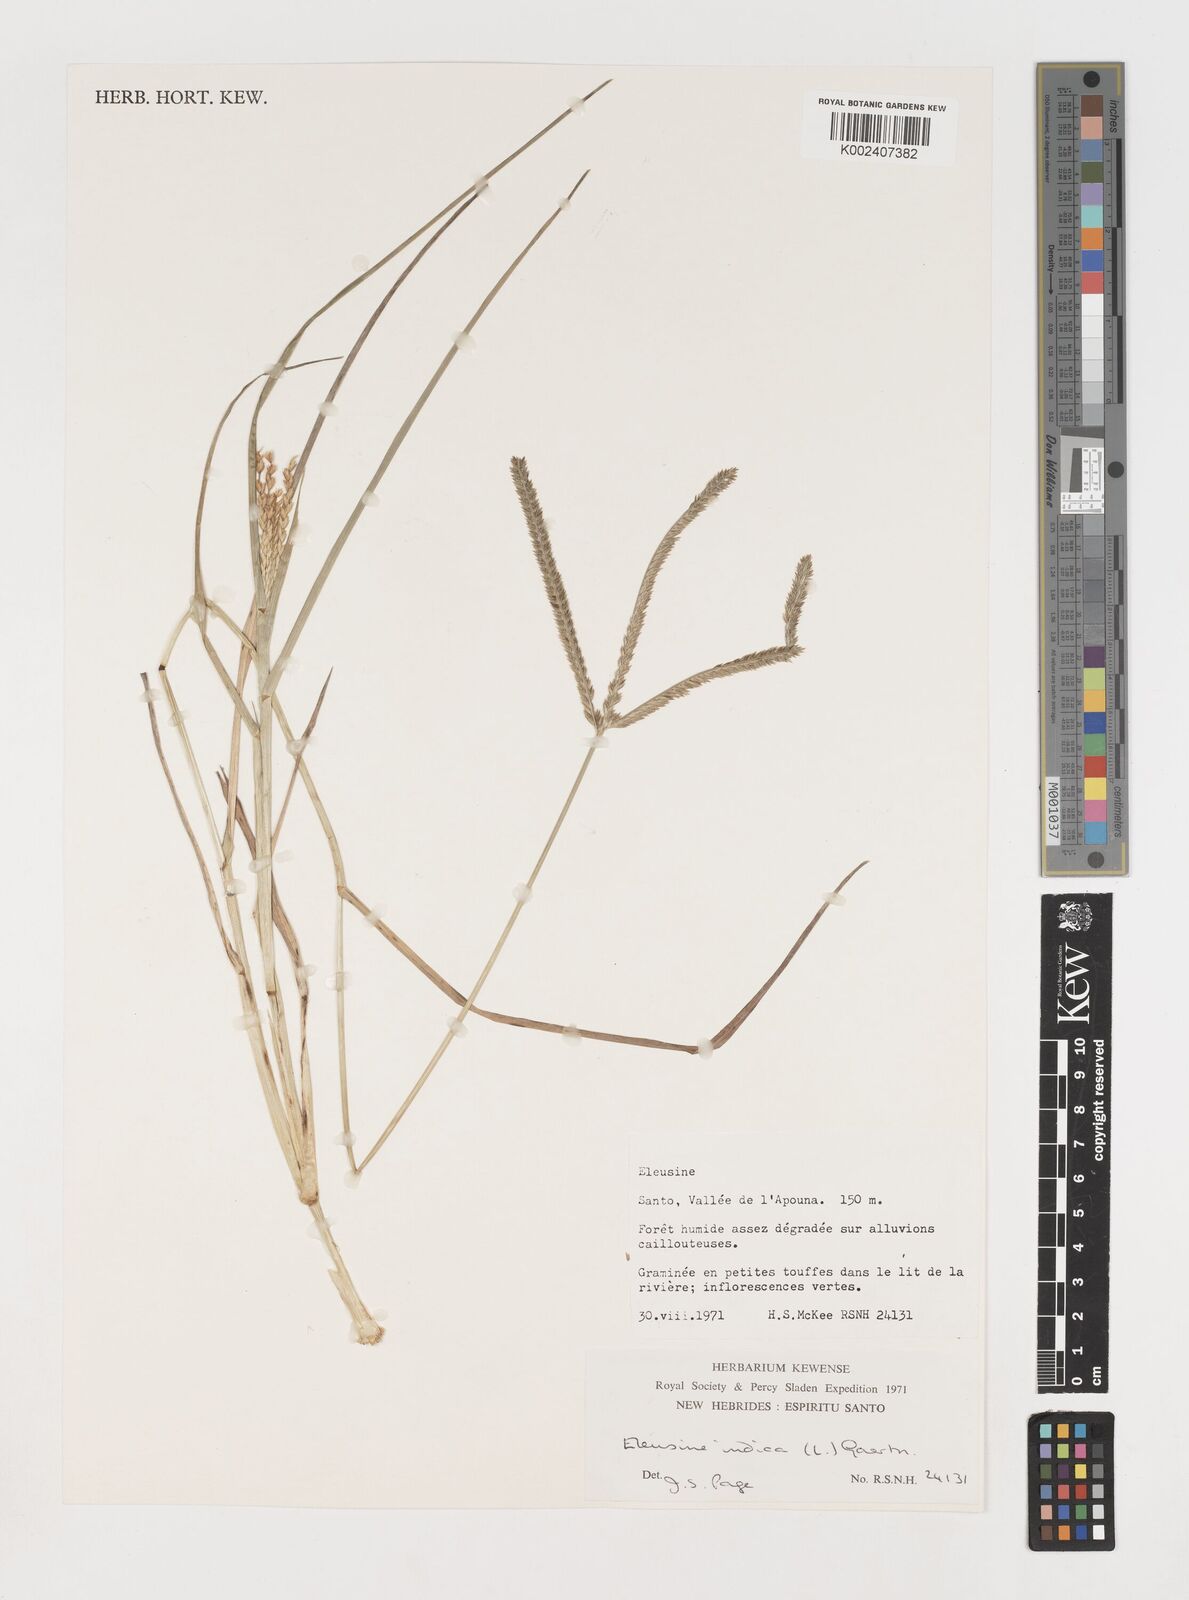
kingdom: Plantae
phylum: Tracheophyta
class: Liliopsida
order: Poales
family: Poaceae
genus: Eleusine
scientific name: Eleusine indica
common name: Yard-grass
